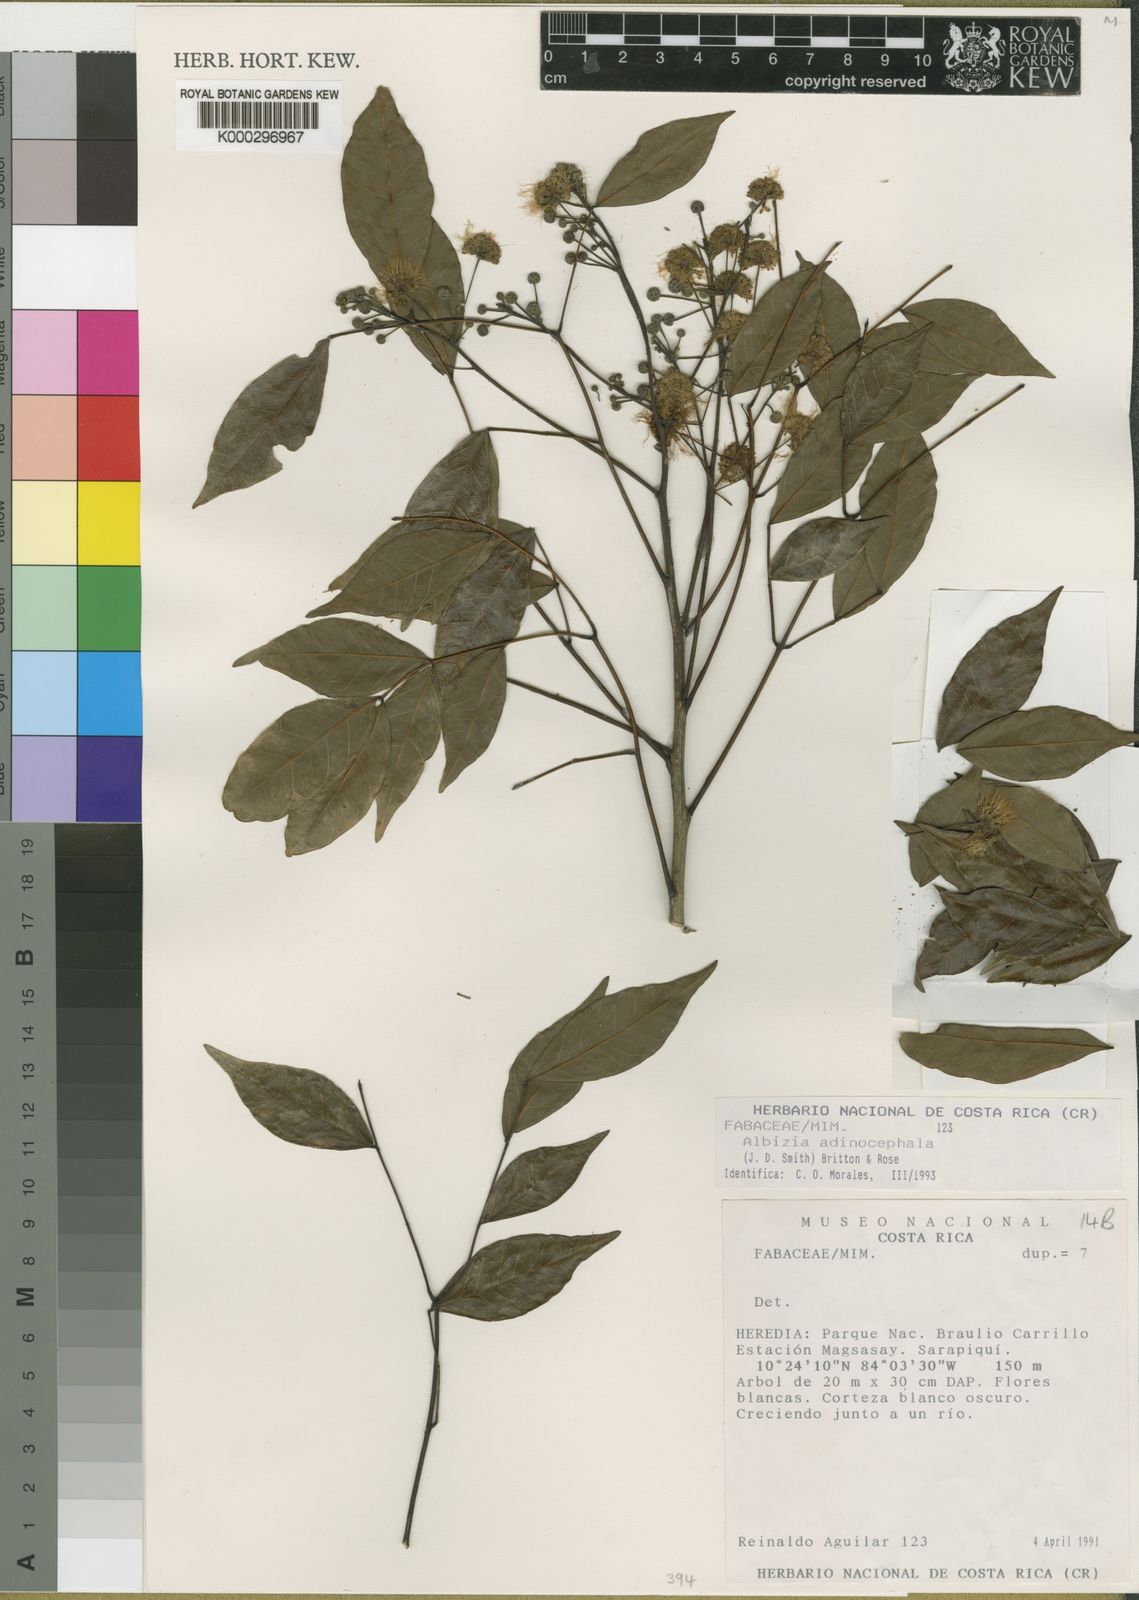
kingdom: Plantae
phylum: Tracheophyta
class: Magnoliopsida
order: Fabales
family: Fabaceae
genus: Albizia
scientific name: Albizia adinocephala
